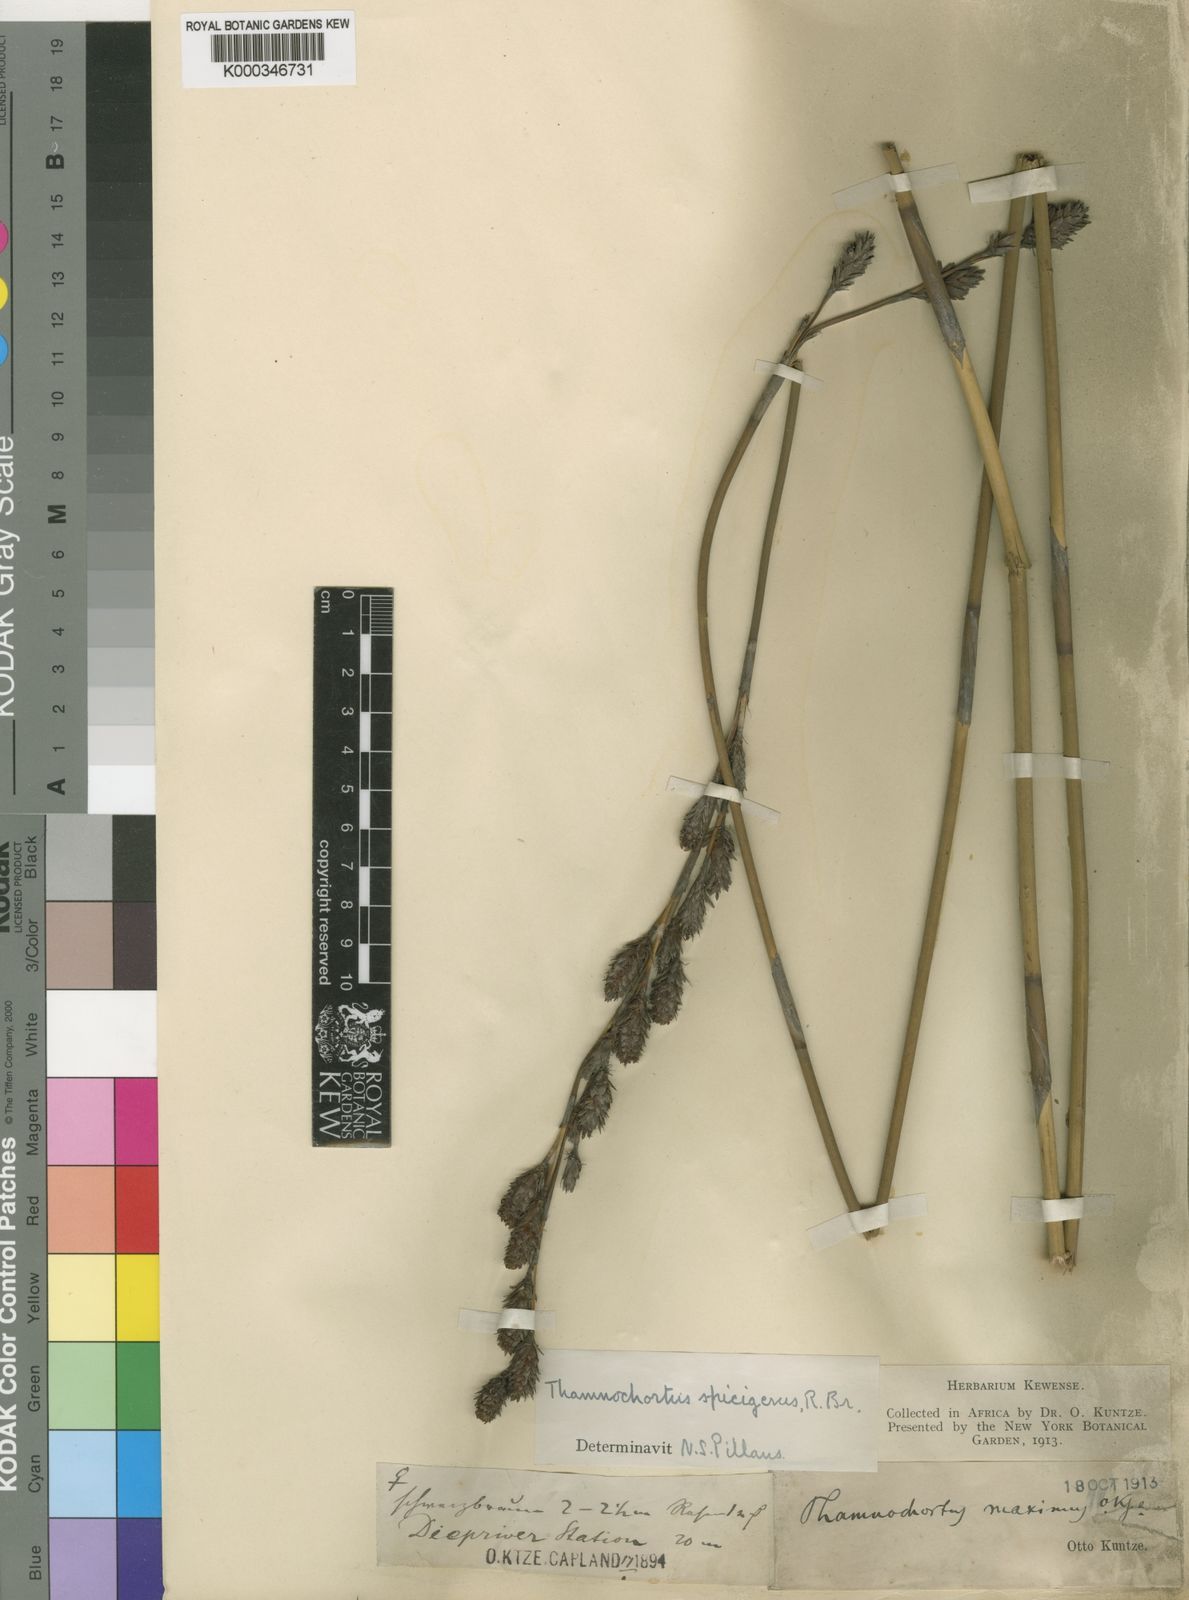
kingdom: Plantae
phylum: Tracheophyta
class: Liliopsida
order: Poales
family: Restionaceae
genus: Thamnochortus
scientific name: Thamnochortus spicigerus
